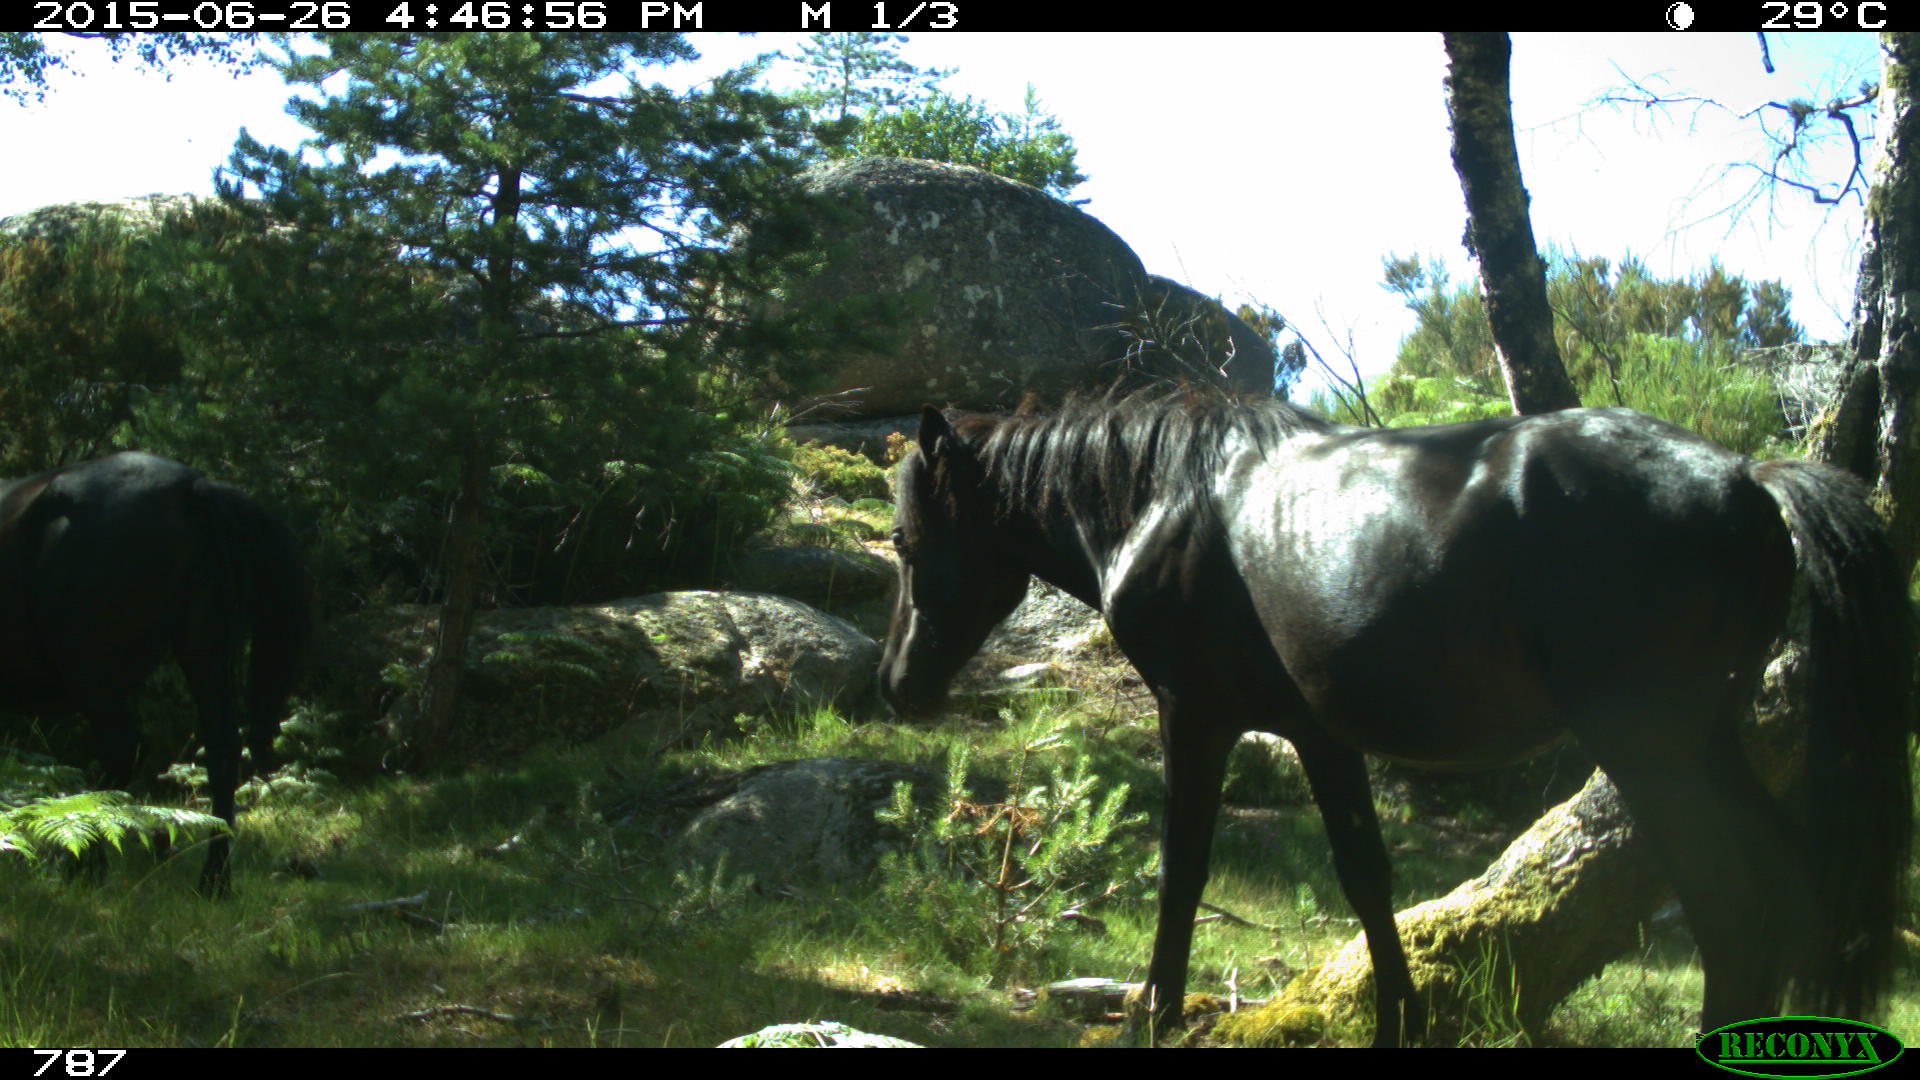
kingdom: Animalia
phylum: Chordata
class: Mammalia
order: Perissodactyla
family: Equidae
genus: Equus
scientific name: Equus caballus
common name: Horse
